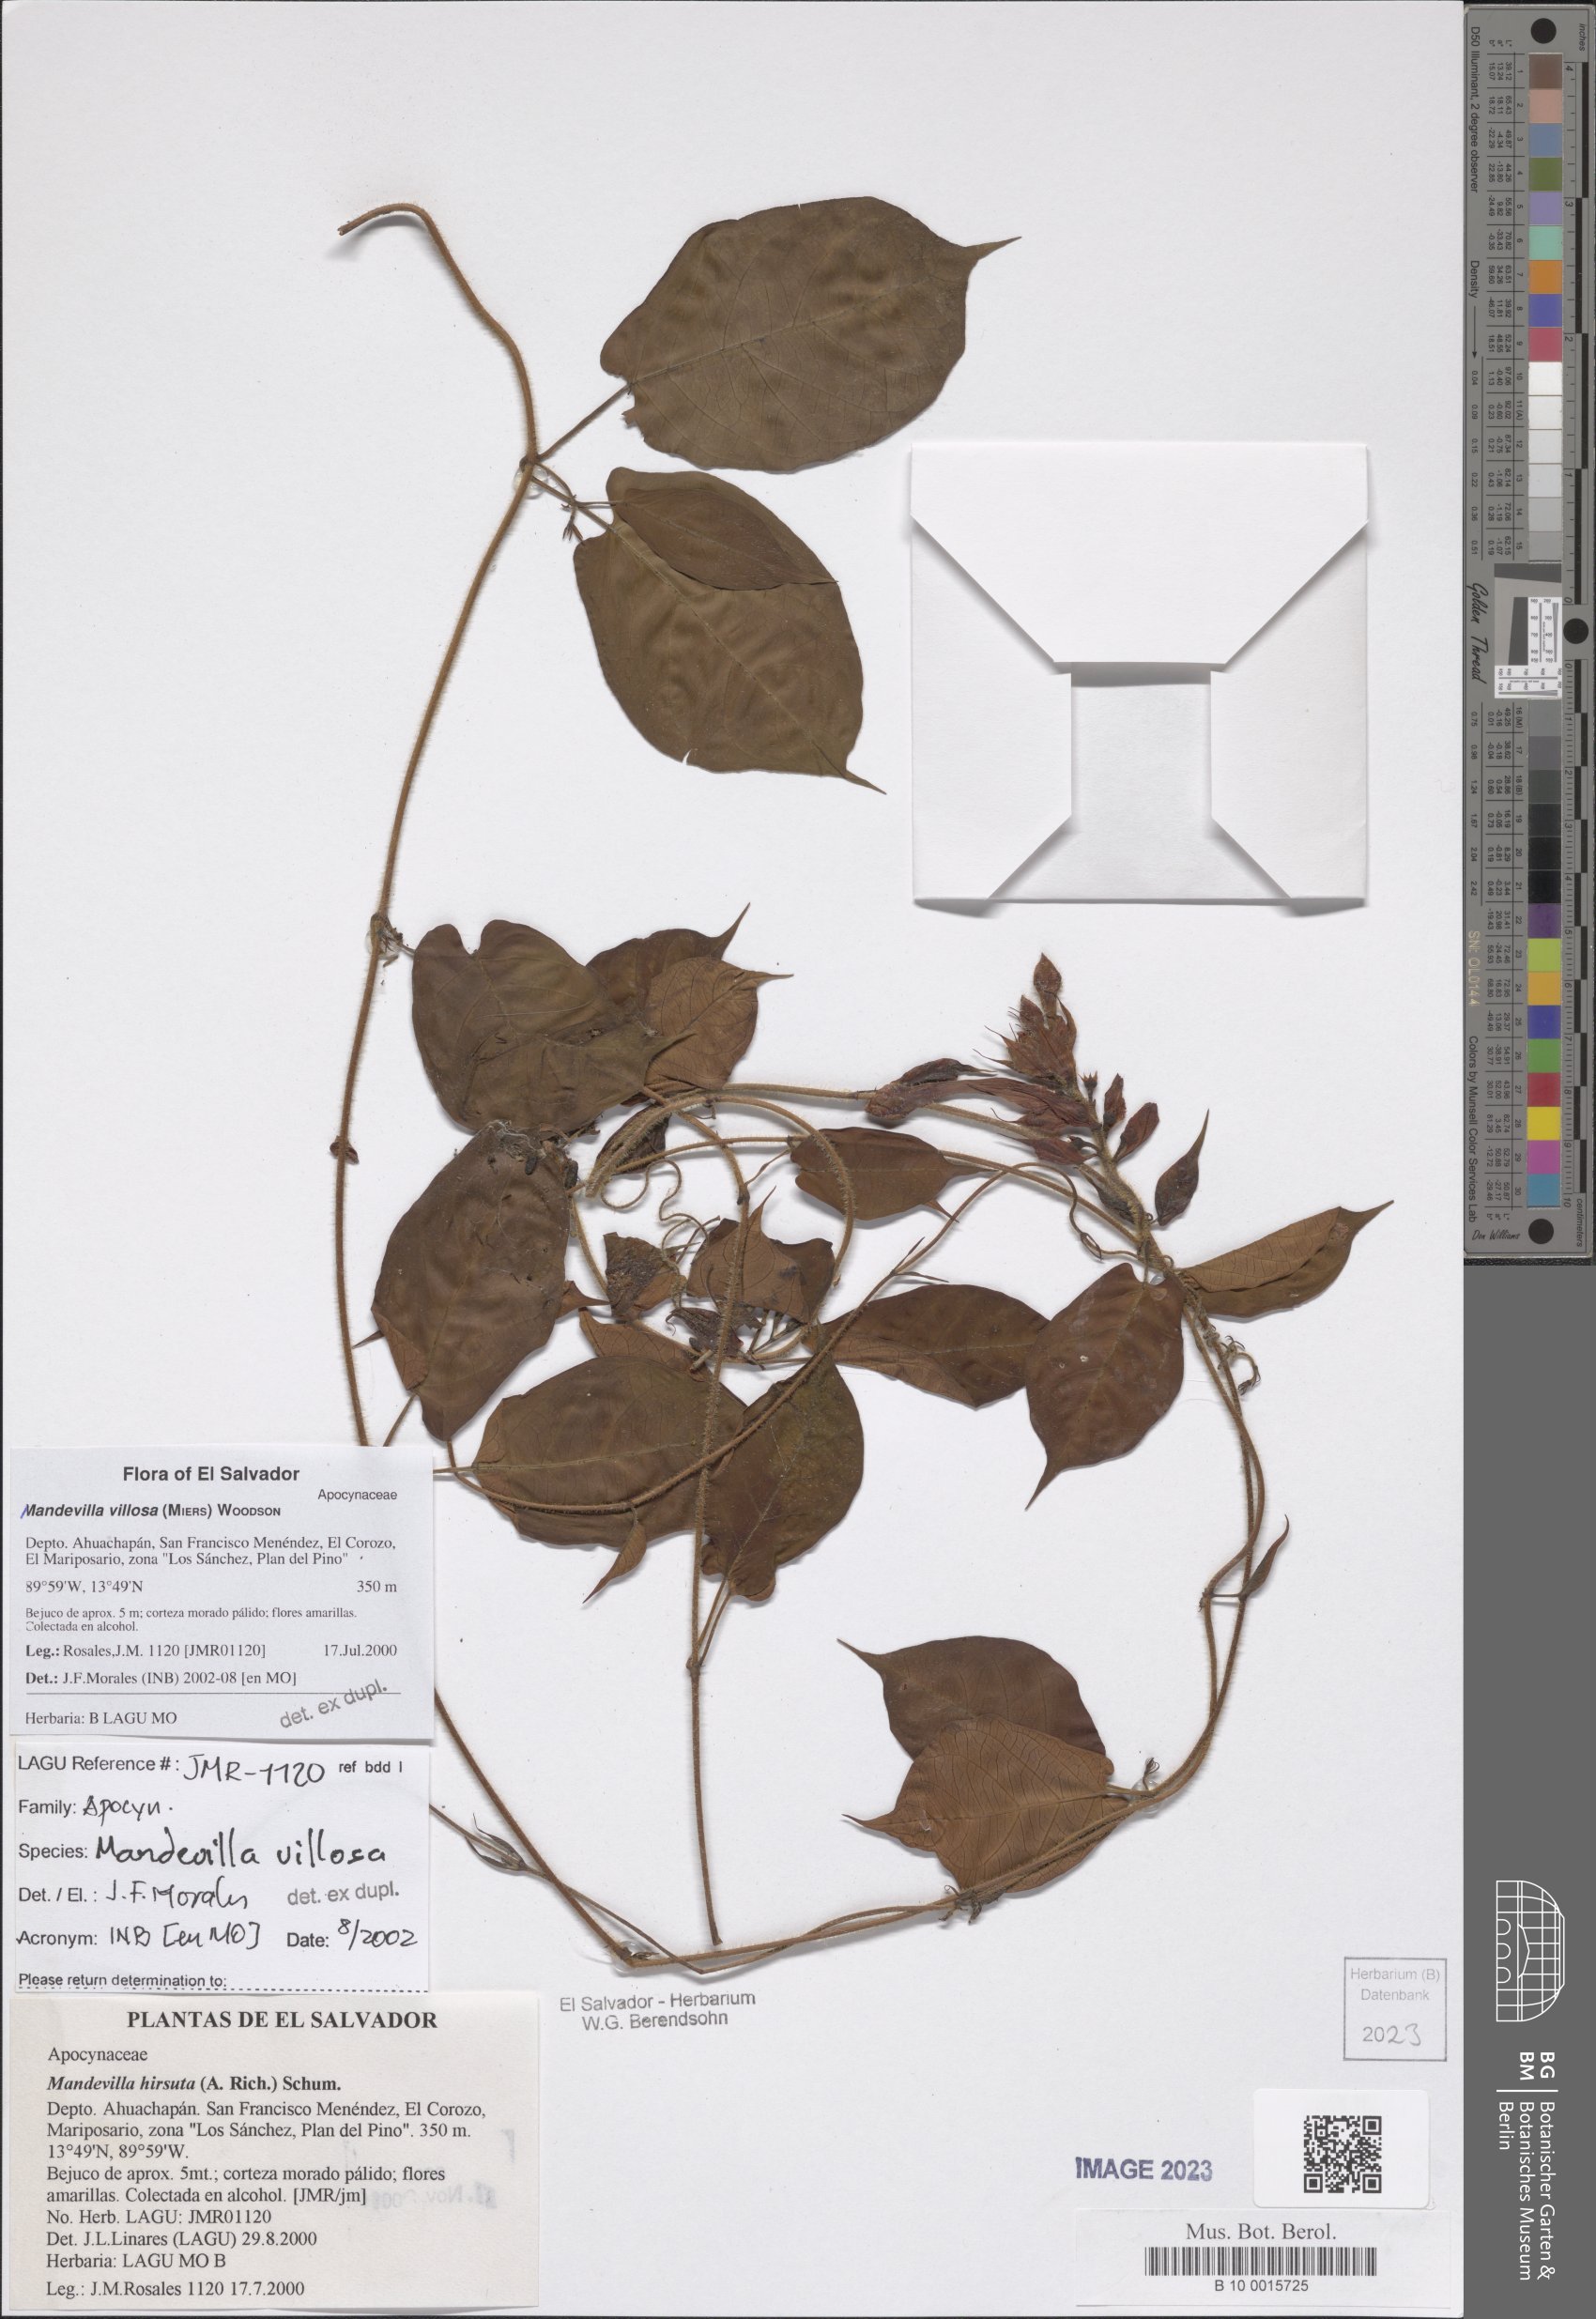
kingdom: Plantae
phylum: Tracheophyta
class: Magnoliopsida
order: Gentianales
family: Apocynaceae
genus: Mandevilla
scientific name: Mandevilla villosa
